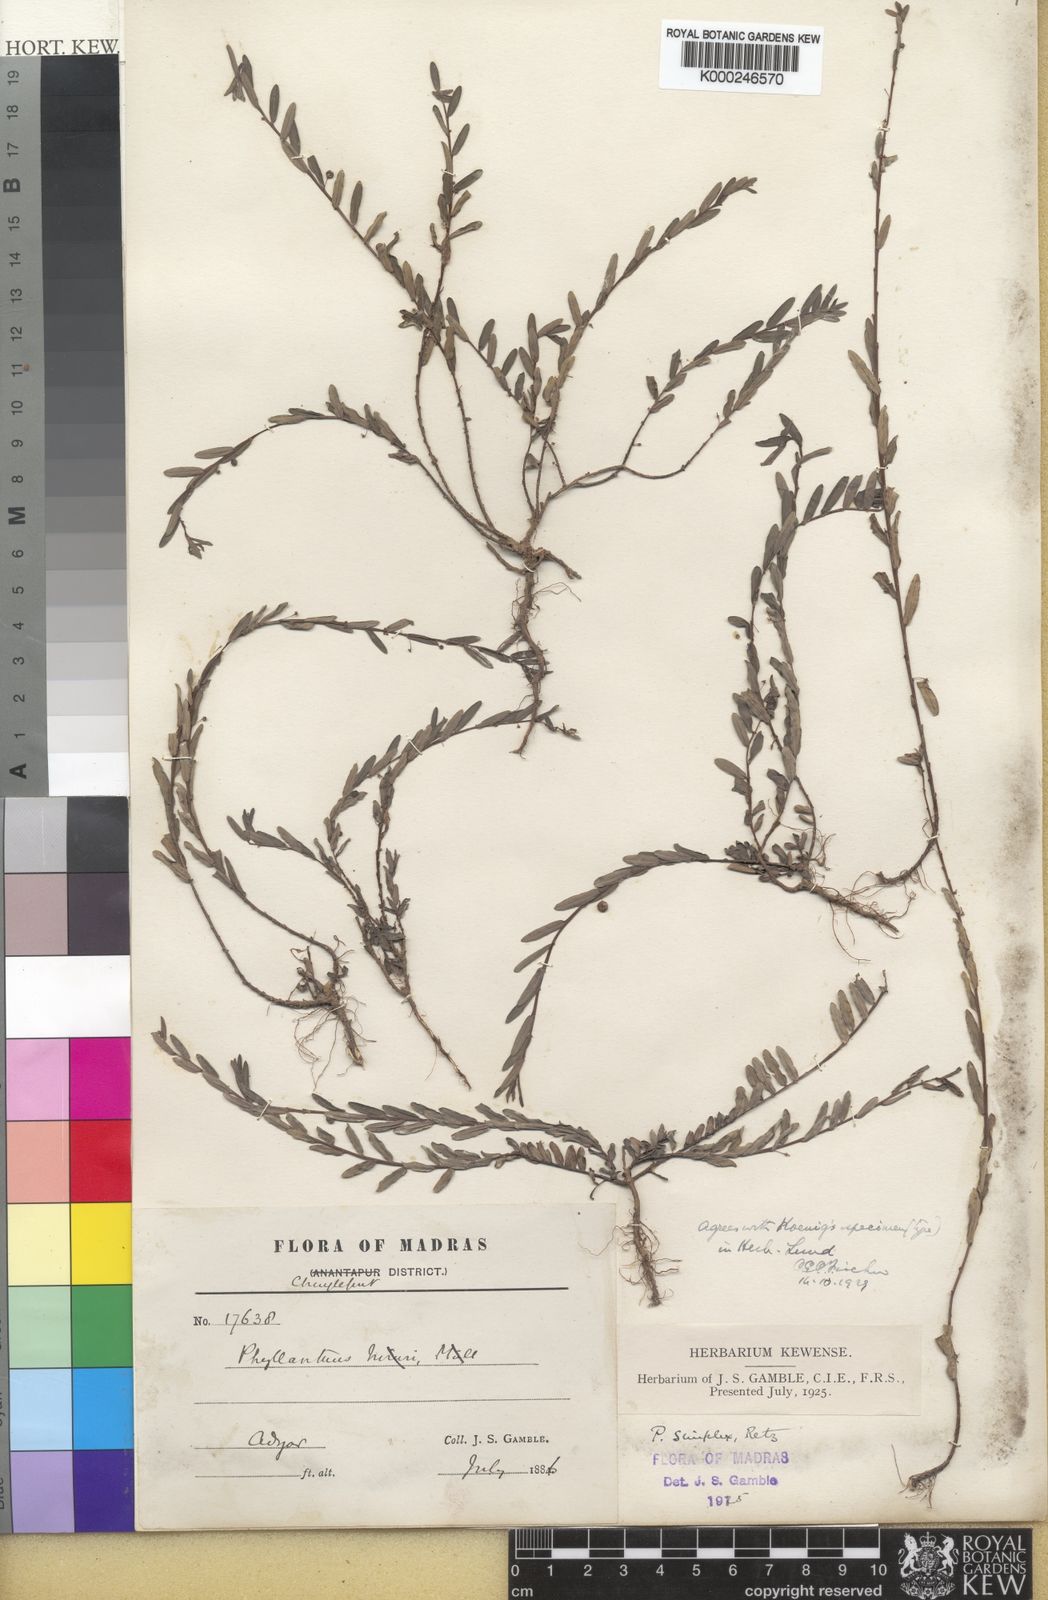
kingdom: Plantae
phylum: Tracheophyta
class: Magnoliopsida
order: Malpighiales
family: Phyllanthaceae
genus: Phyllanthus
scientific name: Phyllanthus virgatus
